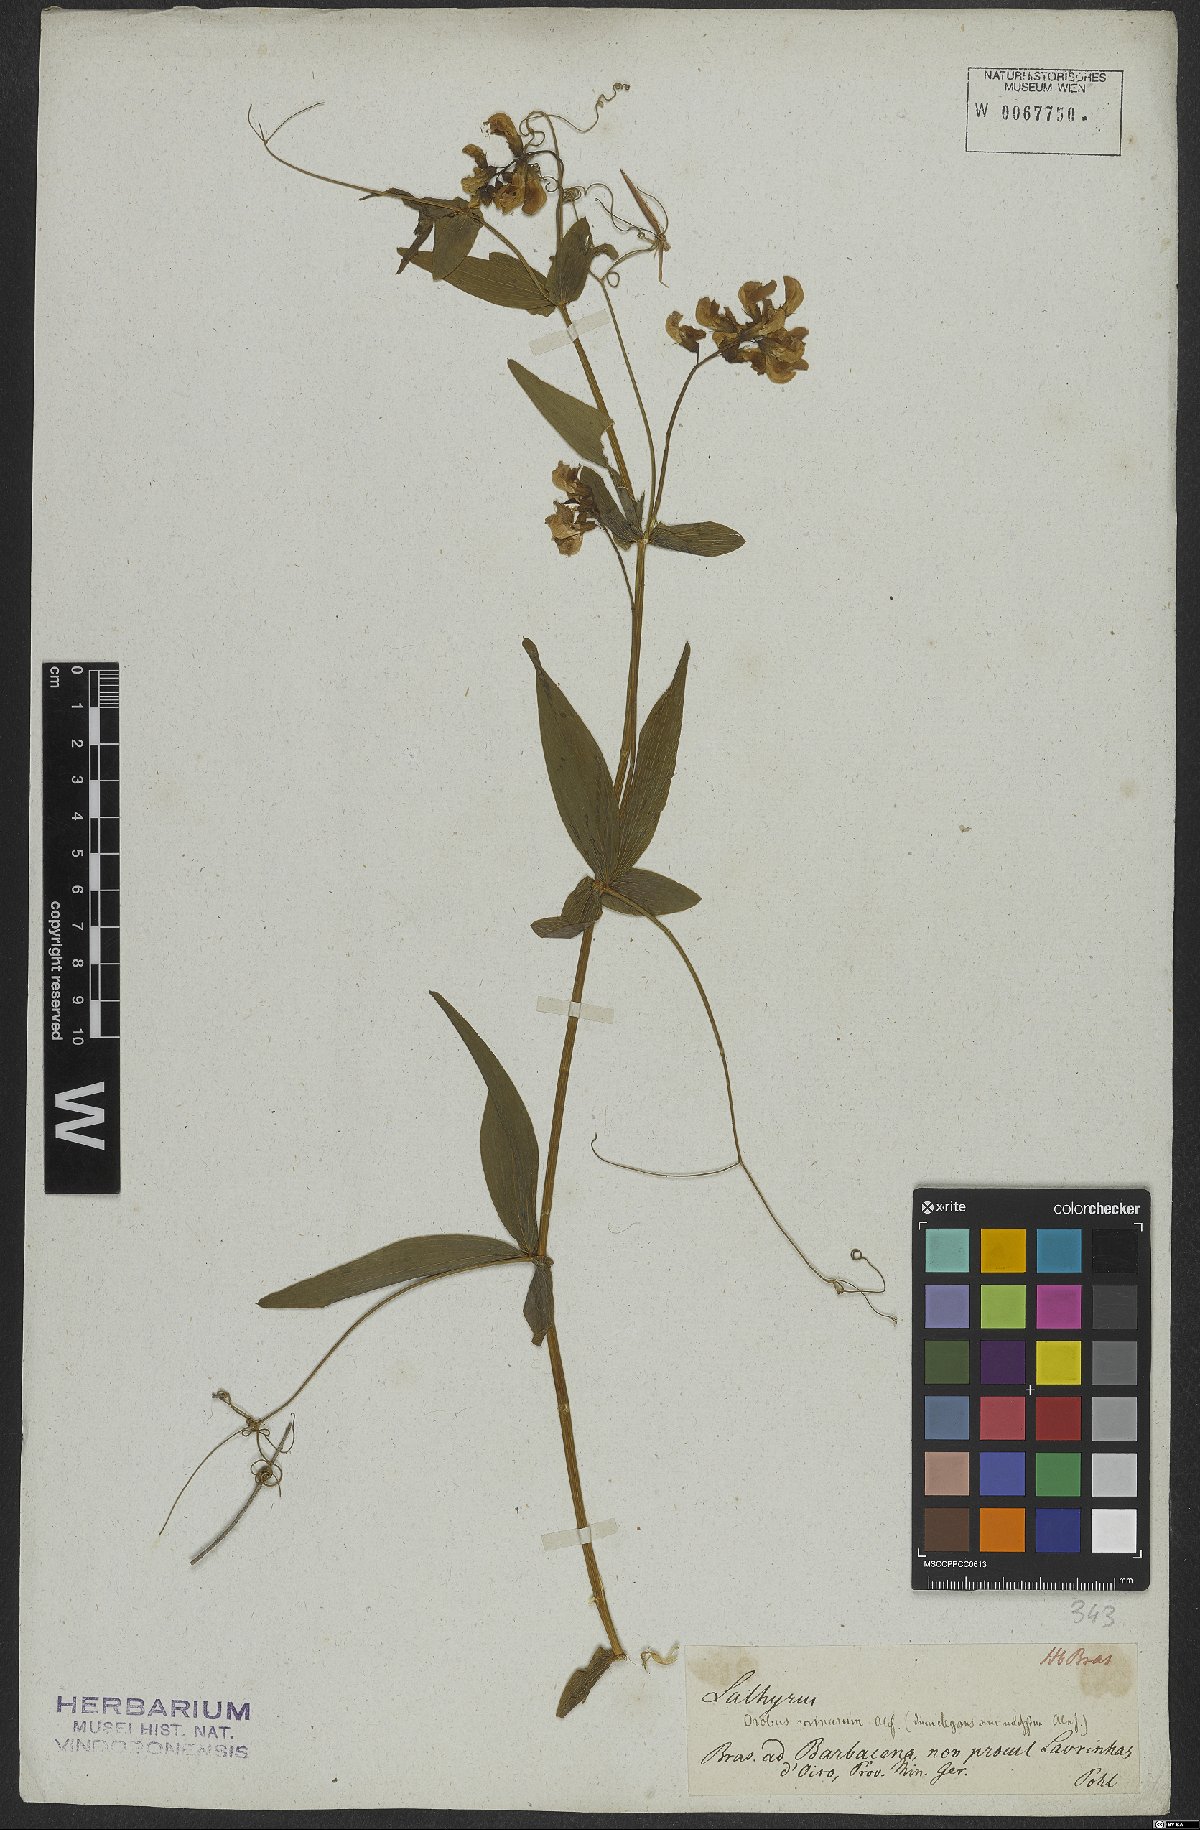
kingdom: Plantae
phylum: Tracheophyta
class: Magnoliopsida
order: Fabales
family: Fabaceae
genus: Lathyrus
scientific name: Lathyrus
